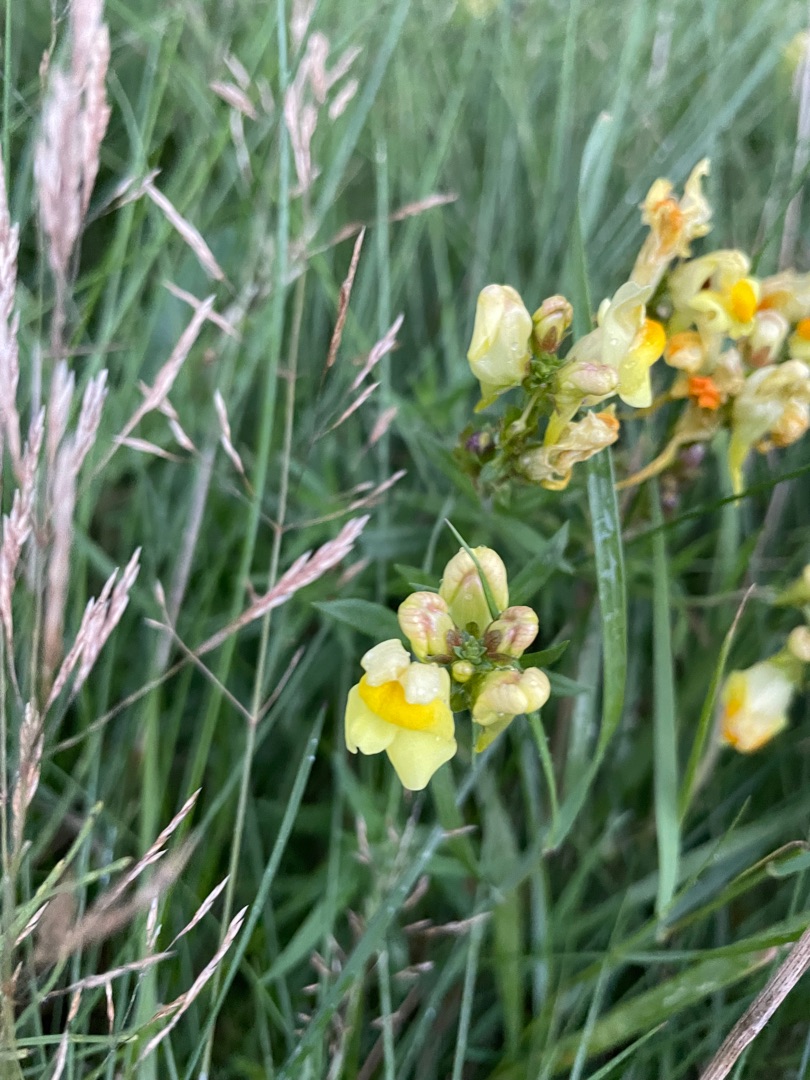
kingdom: Plantae
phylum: Tracheophyta
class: Magnoliopsida
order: Lamiales
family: Plantaginaceae
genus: Linaria
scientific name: Linaria vulgaris
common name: Almindelig torskemund
